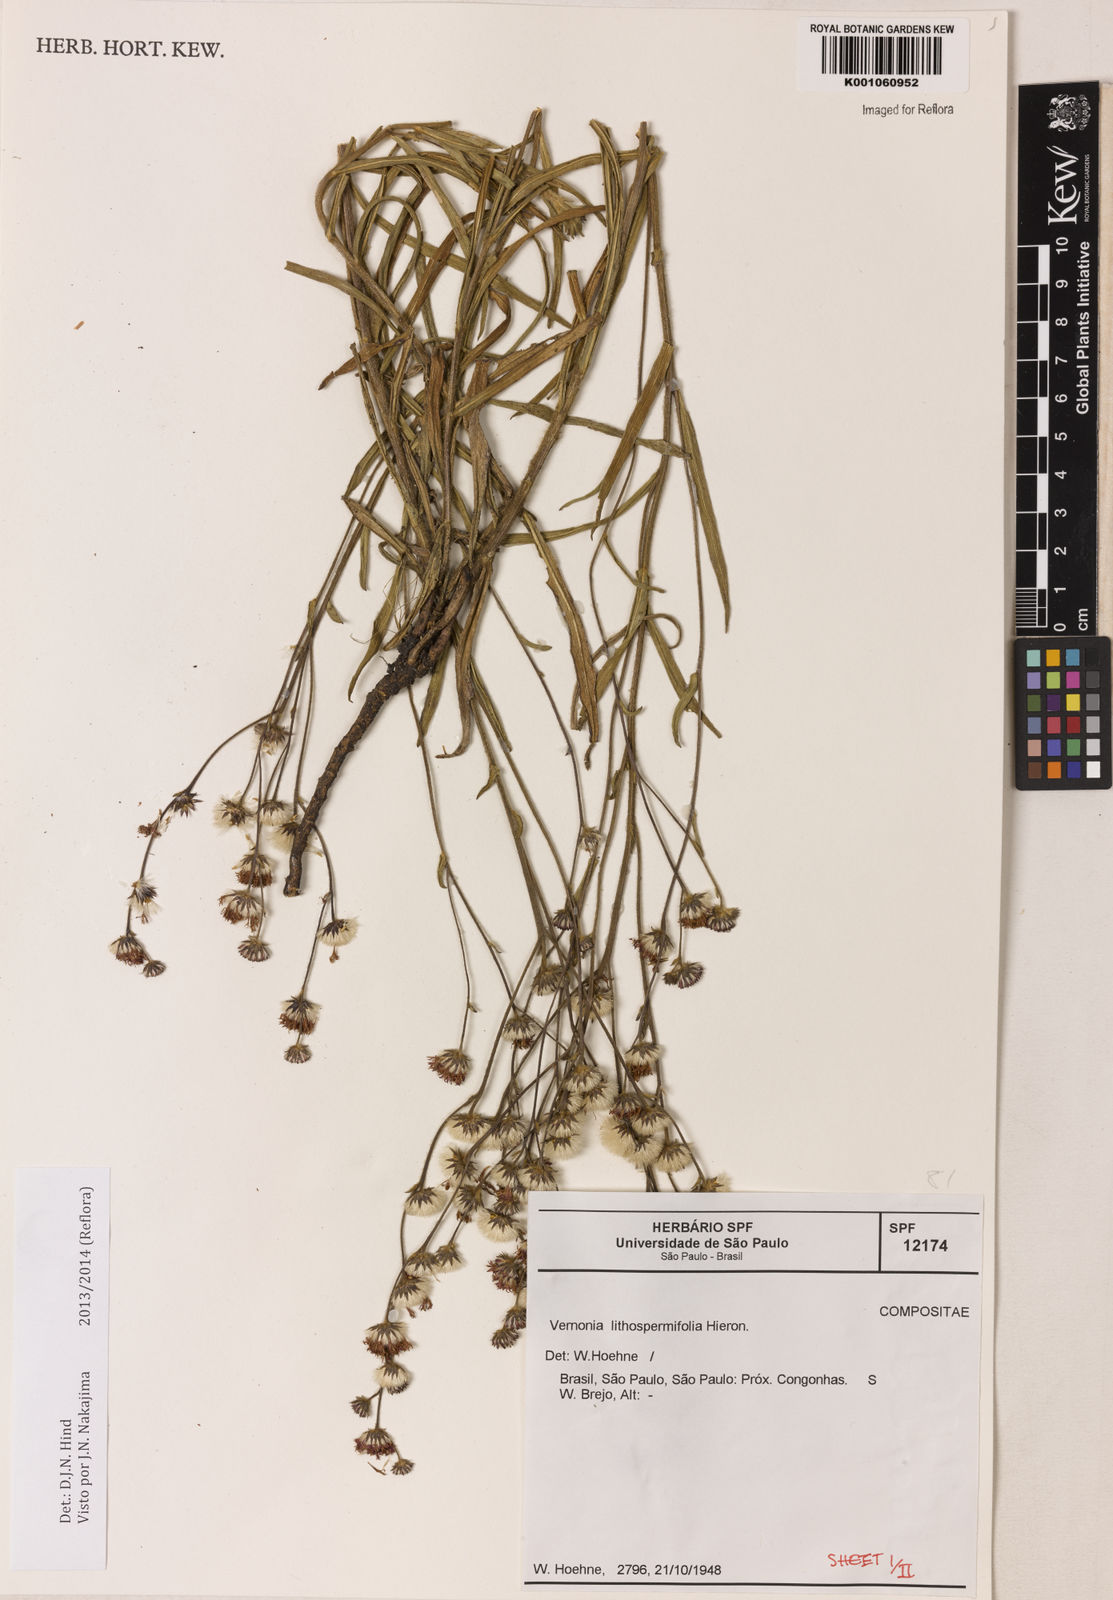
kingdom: Plantae
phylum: Tracheophyta
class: Magnoliopsida
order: Asterales
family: Asteraceae
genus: Chrysolaena
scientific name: Chrysolaena lithospermifolia
